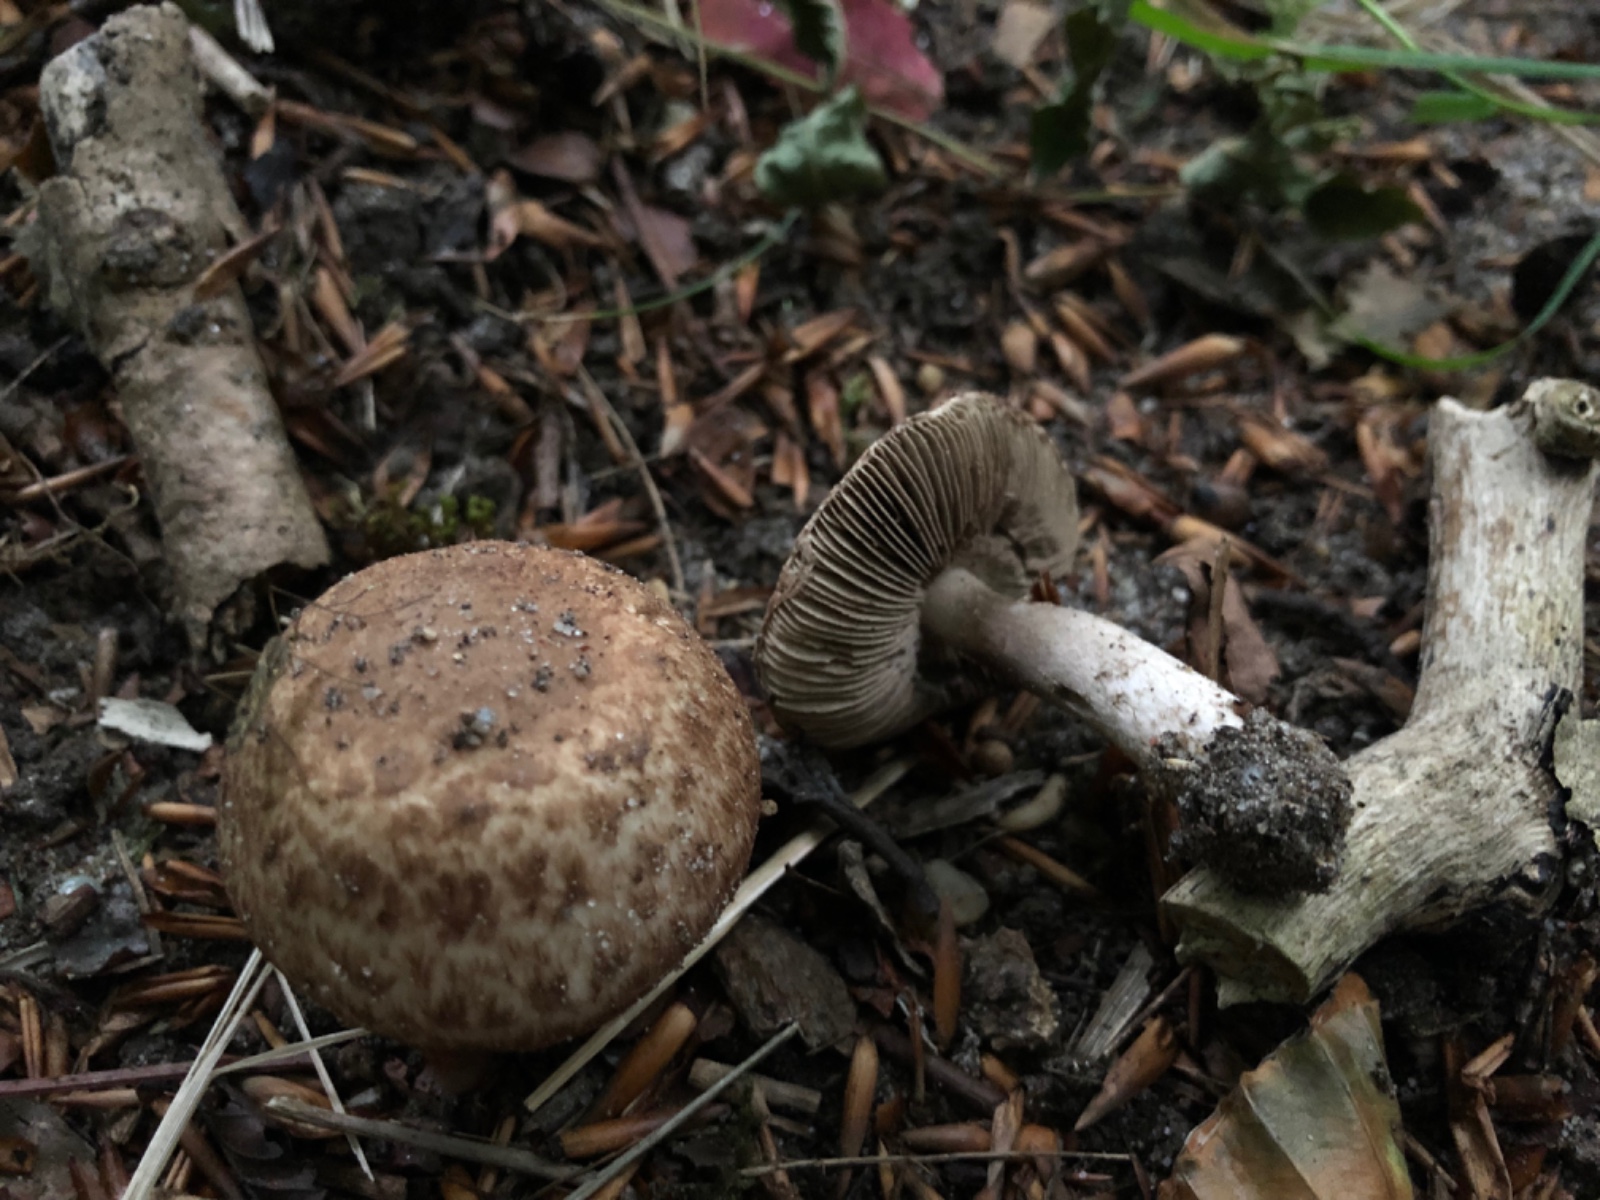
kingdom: Fungi
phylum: Basidiomycota
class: Agaricomycetes
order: Agaricales
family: Agaricaceae
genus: Agaricus
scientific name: Agaricus sylvaticus
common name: lille blod-champignon
